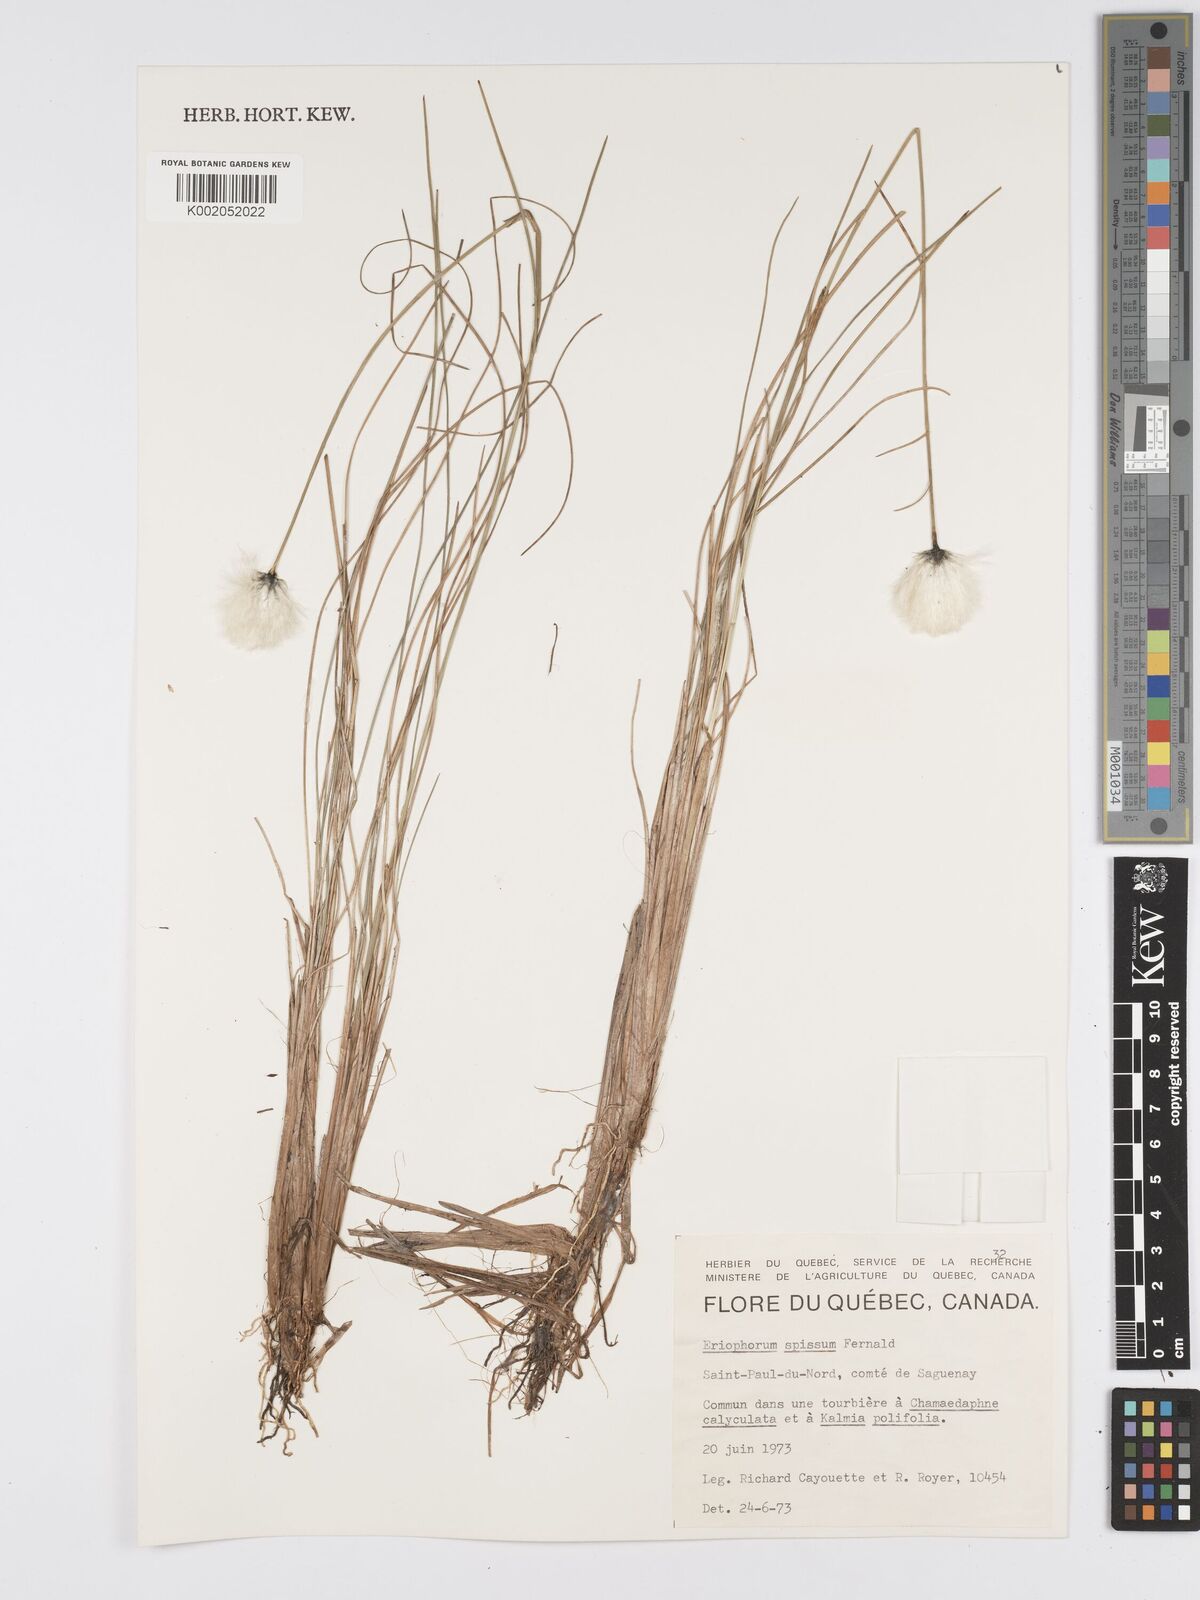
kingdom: Plantae
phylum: Tracheophyta
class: Liliopsida
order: Poales
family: Cyperaceae
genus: Eriophorum
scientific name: Eriophorum vaginatum
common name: Hare's-tail cottongrass
